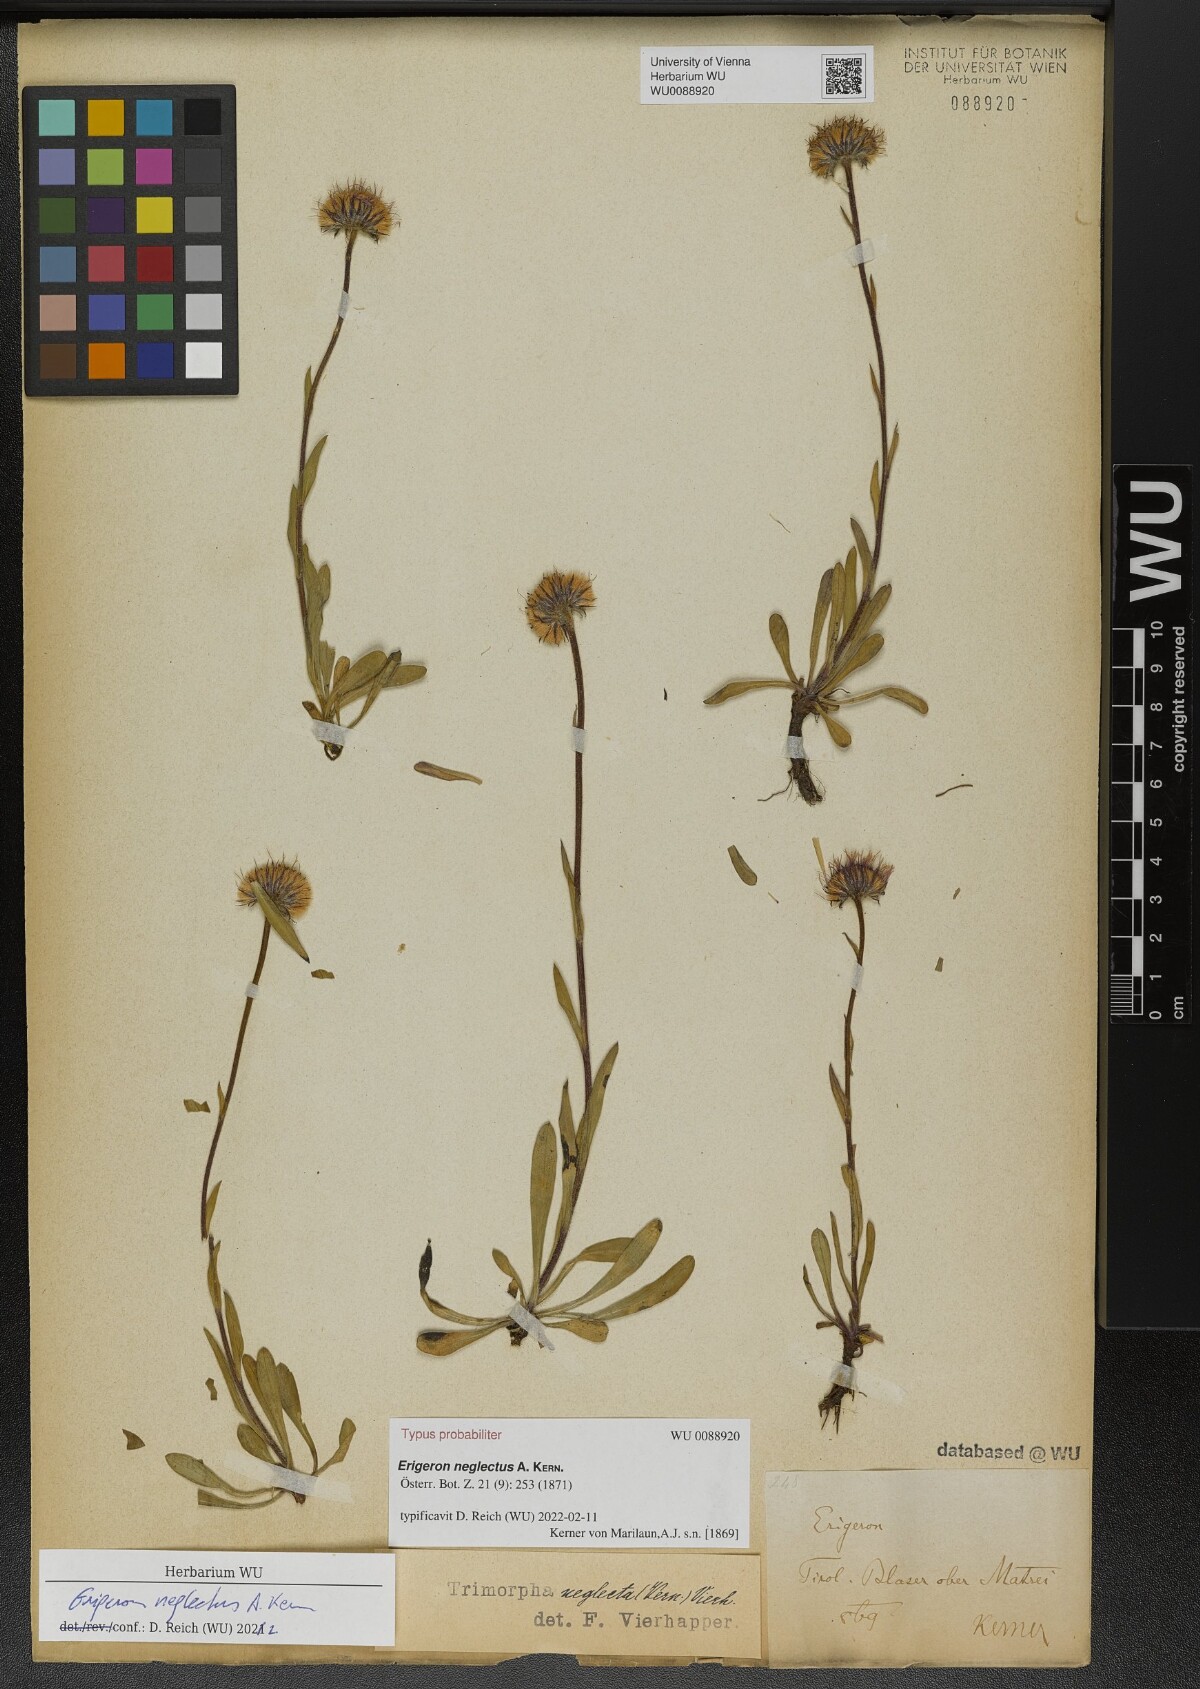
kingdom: Plantae
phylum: Tracheophyta
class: Magnoliopsida
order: Asterales
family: Asteraceae
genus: Erigeron
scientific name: Erigeron neglectus
